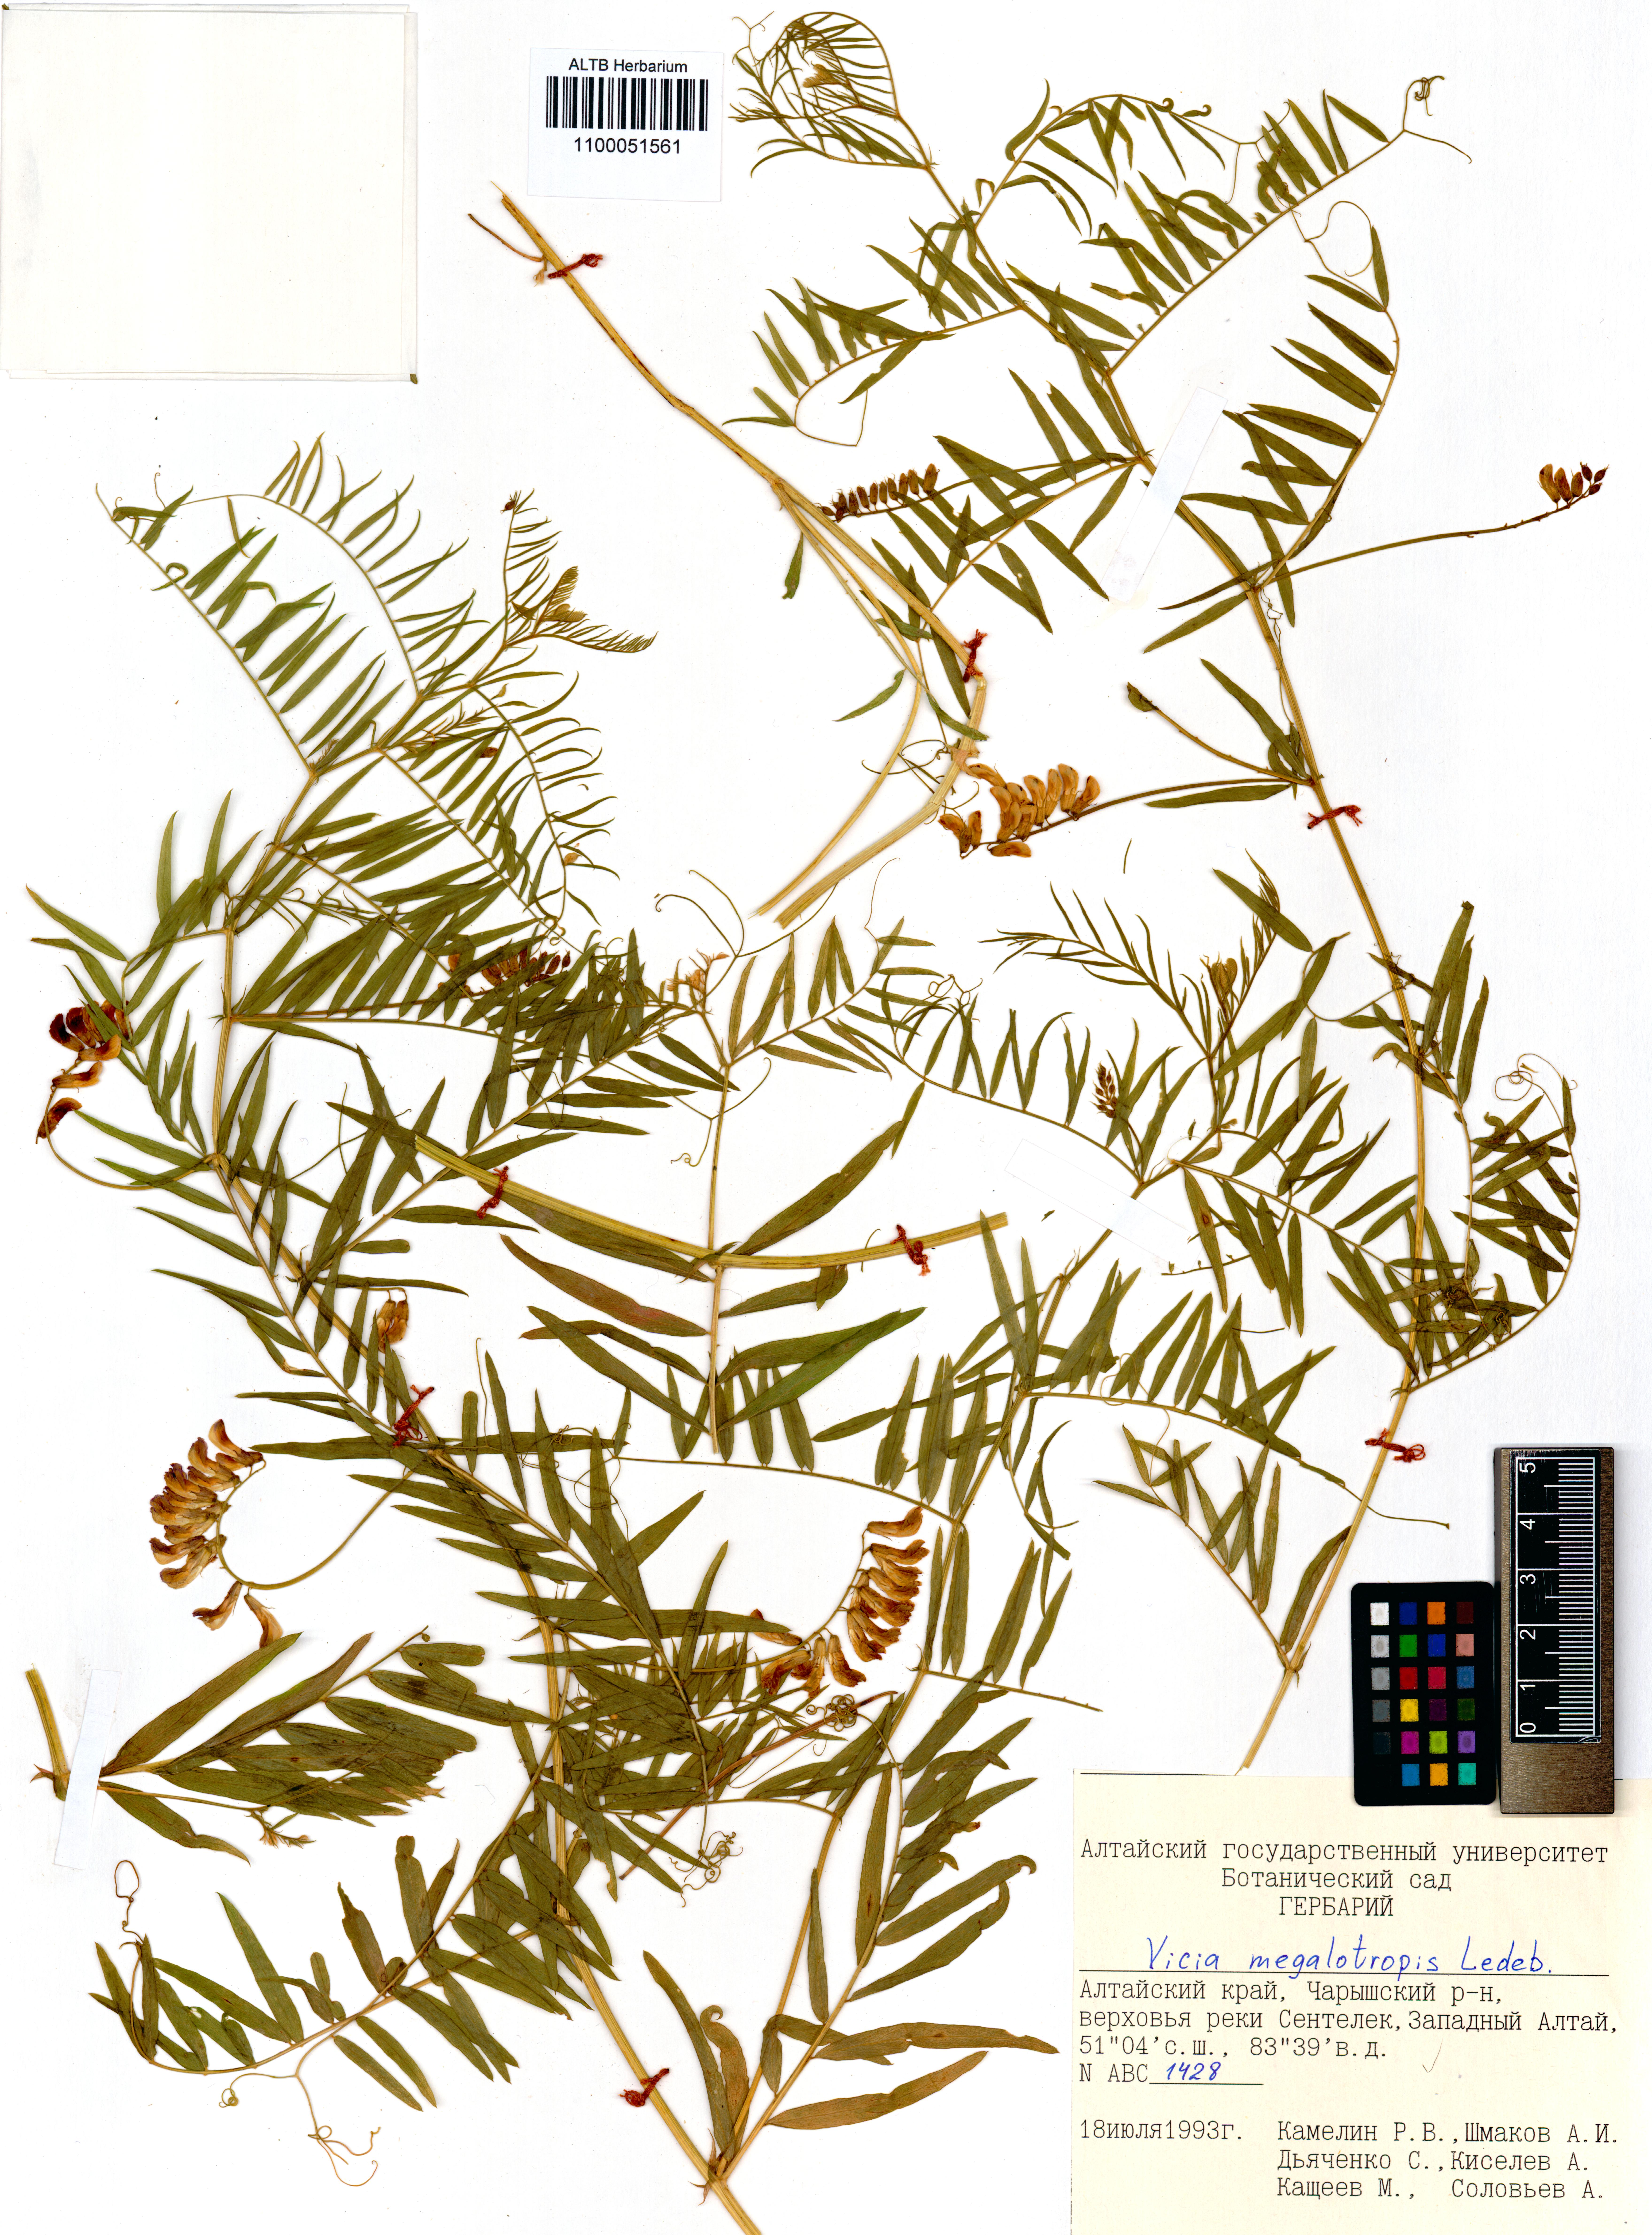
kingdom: Plantae
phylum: Tracheophyta
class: Magnoliopsida
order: Fabales
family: Fabaceae
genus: Vicia
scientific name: Vicia megalotropis
